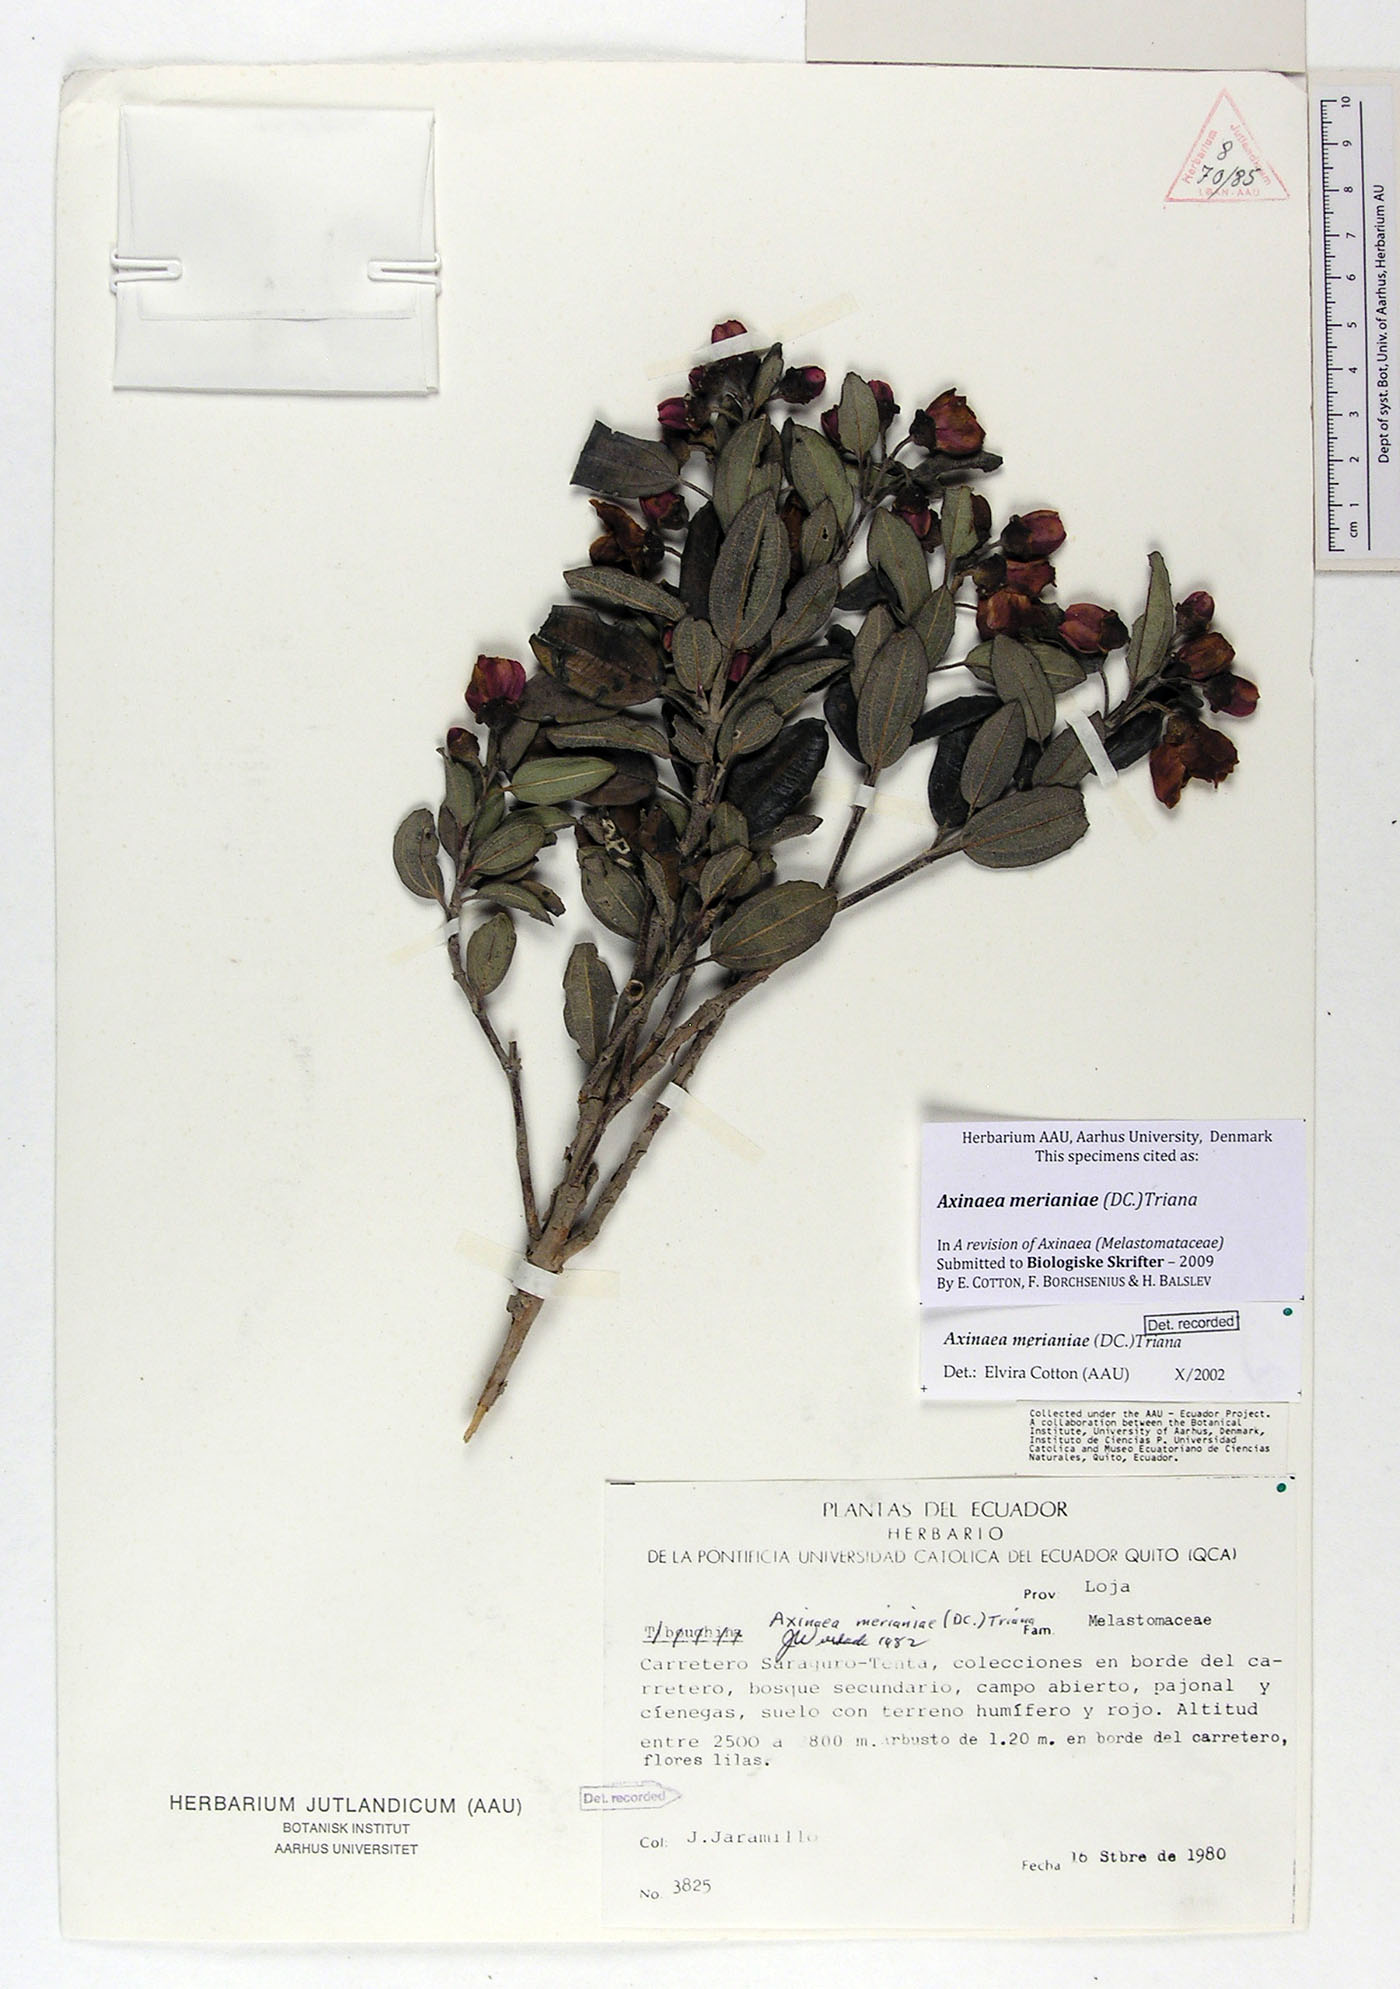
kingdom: Plantae
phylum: Tracheophyta
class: Magnoliopsida
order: Myrtales
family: Melastomataceae
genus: Axinaea
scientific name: Axinaea merianiae
